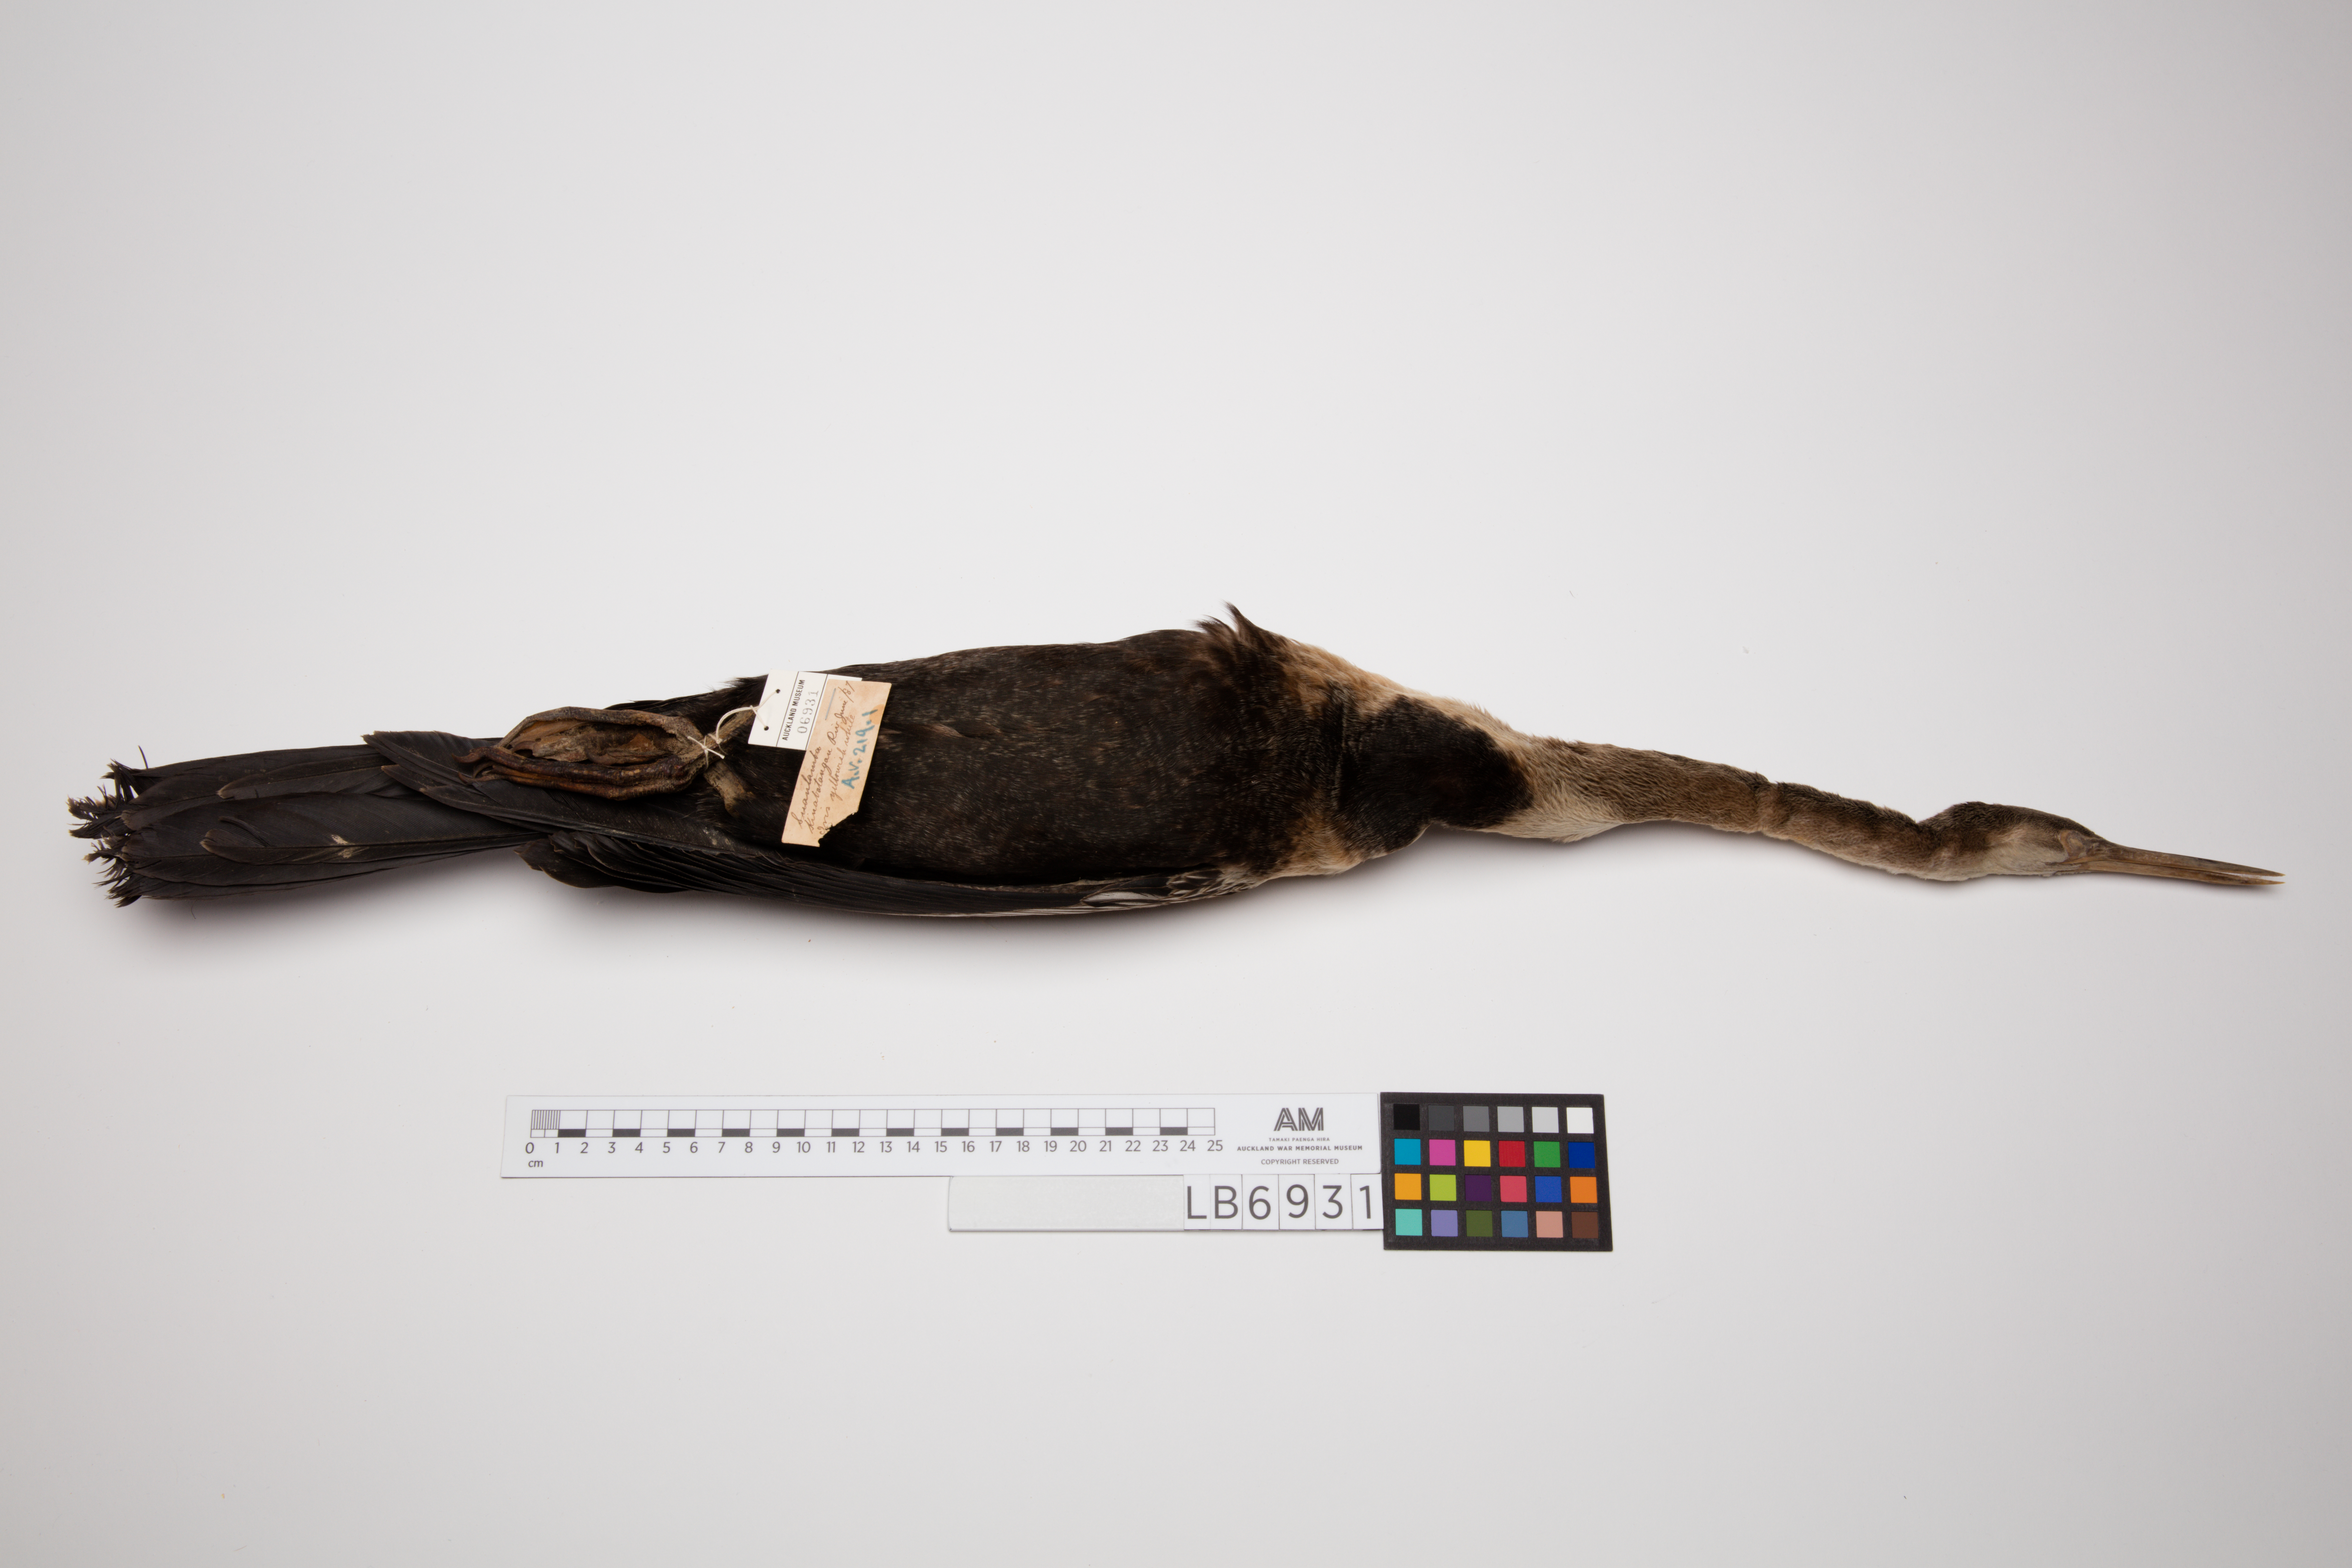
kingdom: Animalia
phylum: Chordata
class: Aves
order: Suliformes
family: Anhingidae
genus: Anhinga
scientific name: Anhinga melanogaster
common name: Oriental darter
